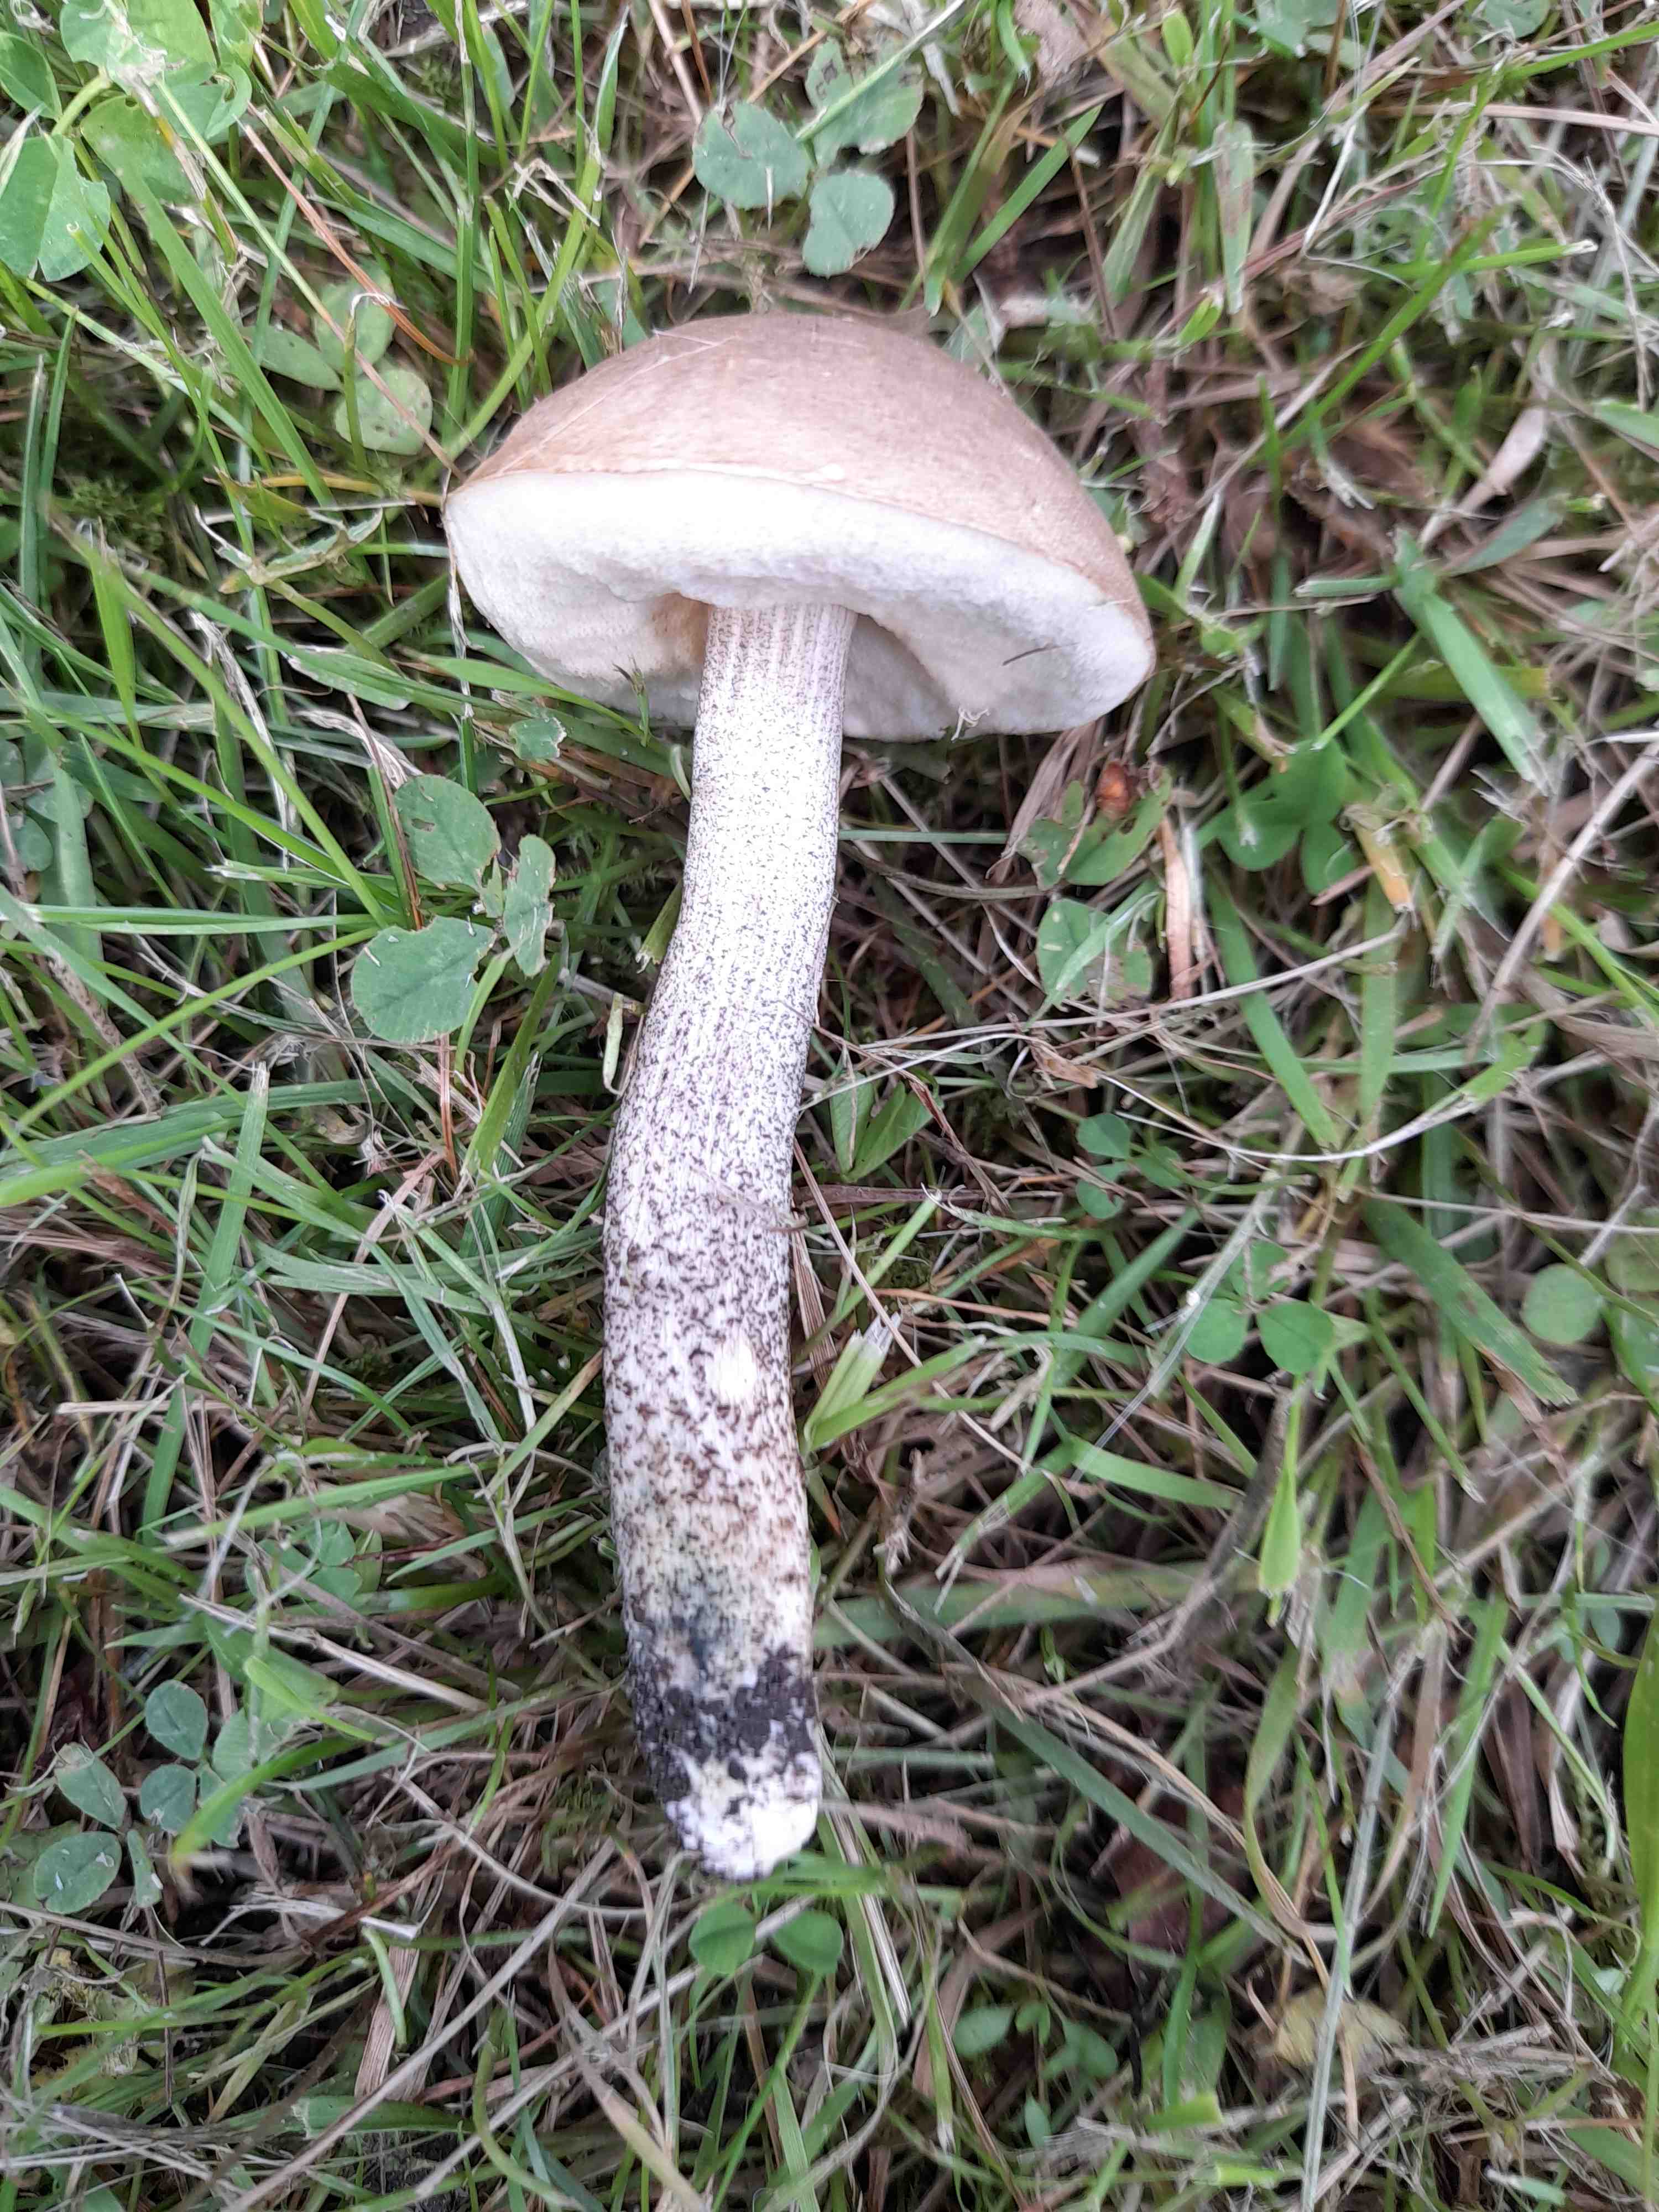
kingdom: Fungi
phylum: Basidiomycota
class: Agaricomycetes
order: Boletales
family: Boletaceae
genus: Leccinum
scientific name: Leccinum scabrum
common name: brun skælrørhat
